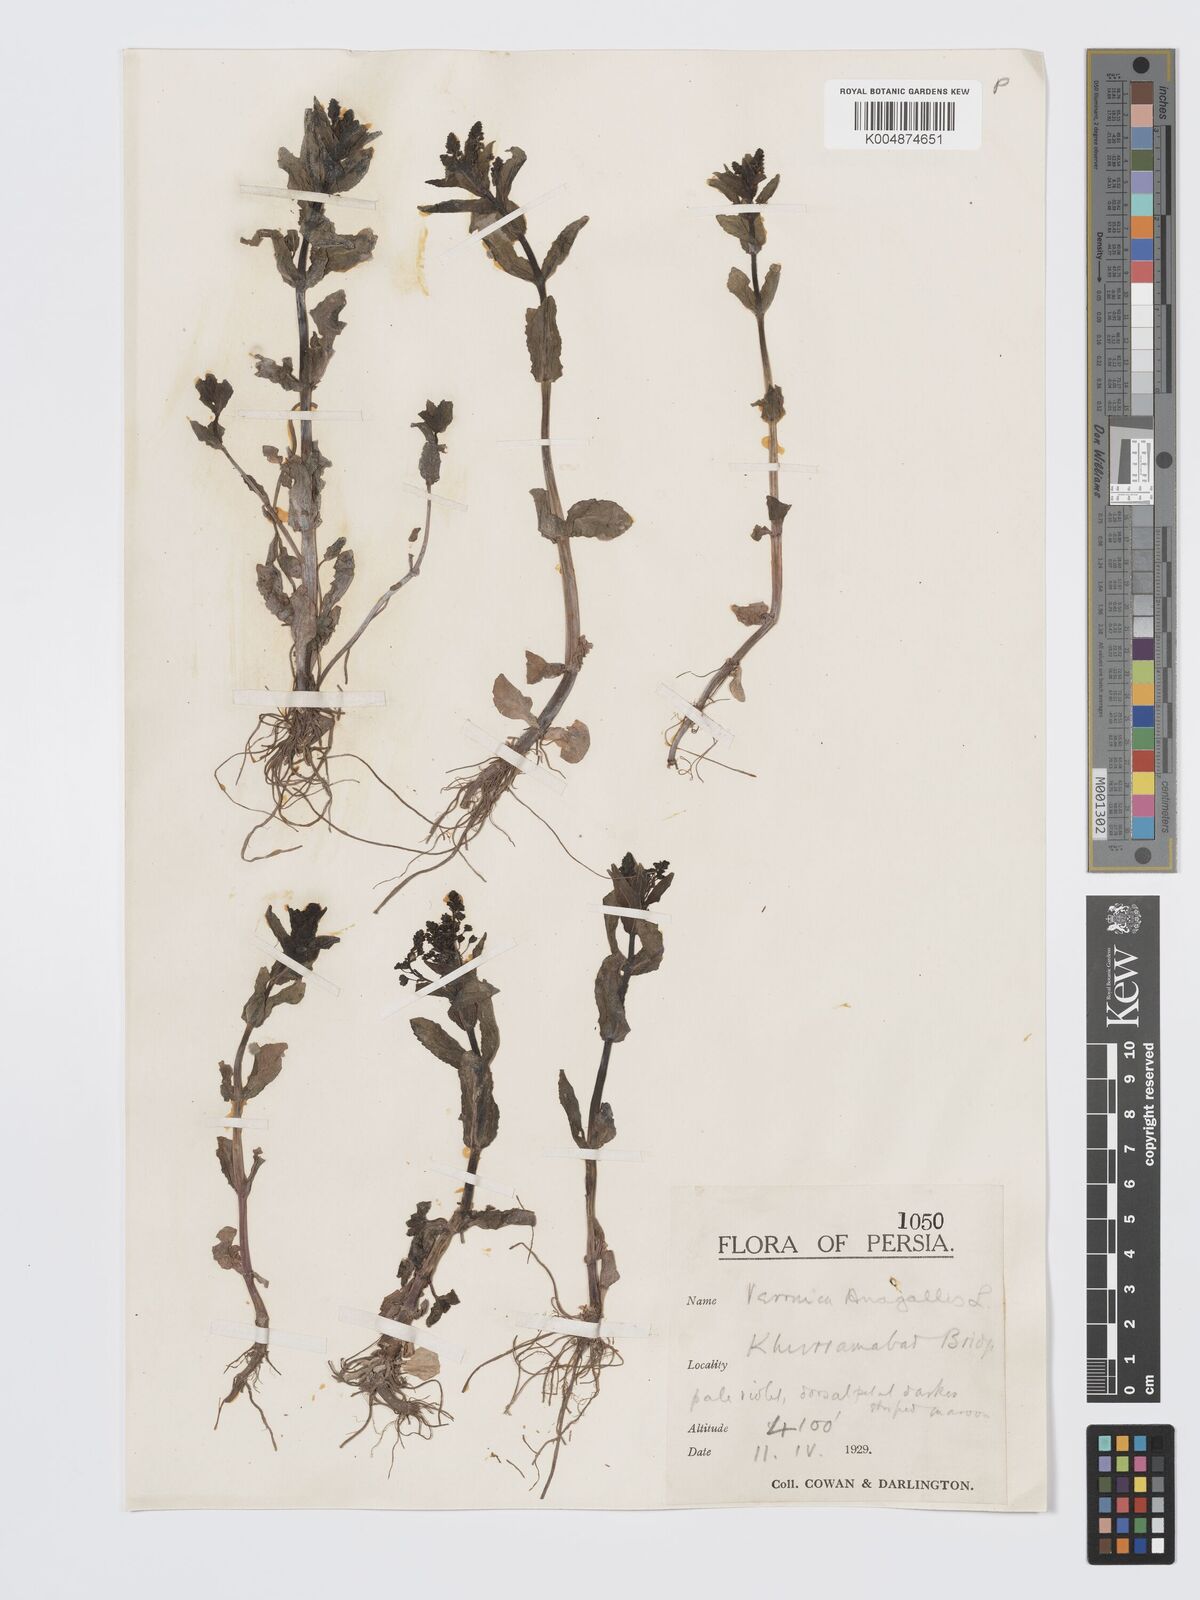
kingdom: Plantae
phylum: Tracheophyta
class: Magnoliopsida
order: Lamiales
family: Plantaginaceae
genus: Veronica
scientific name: Veronica
